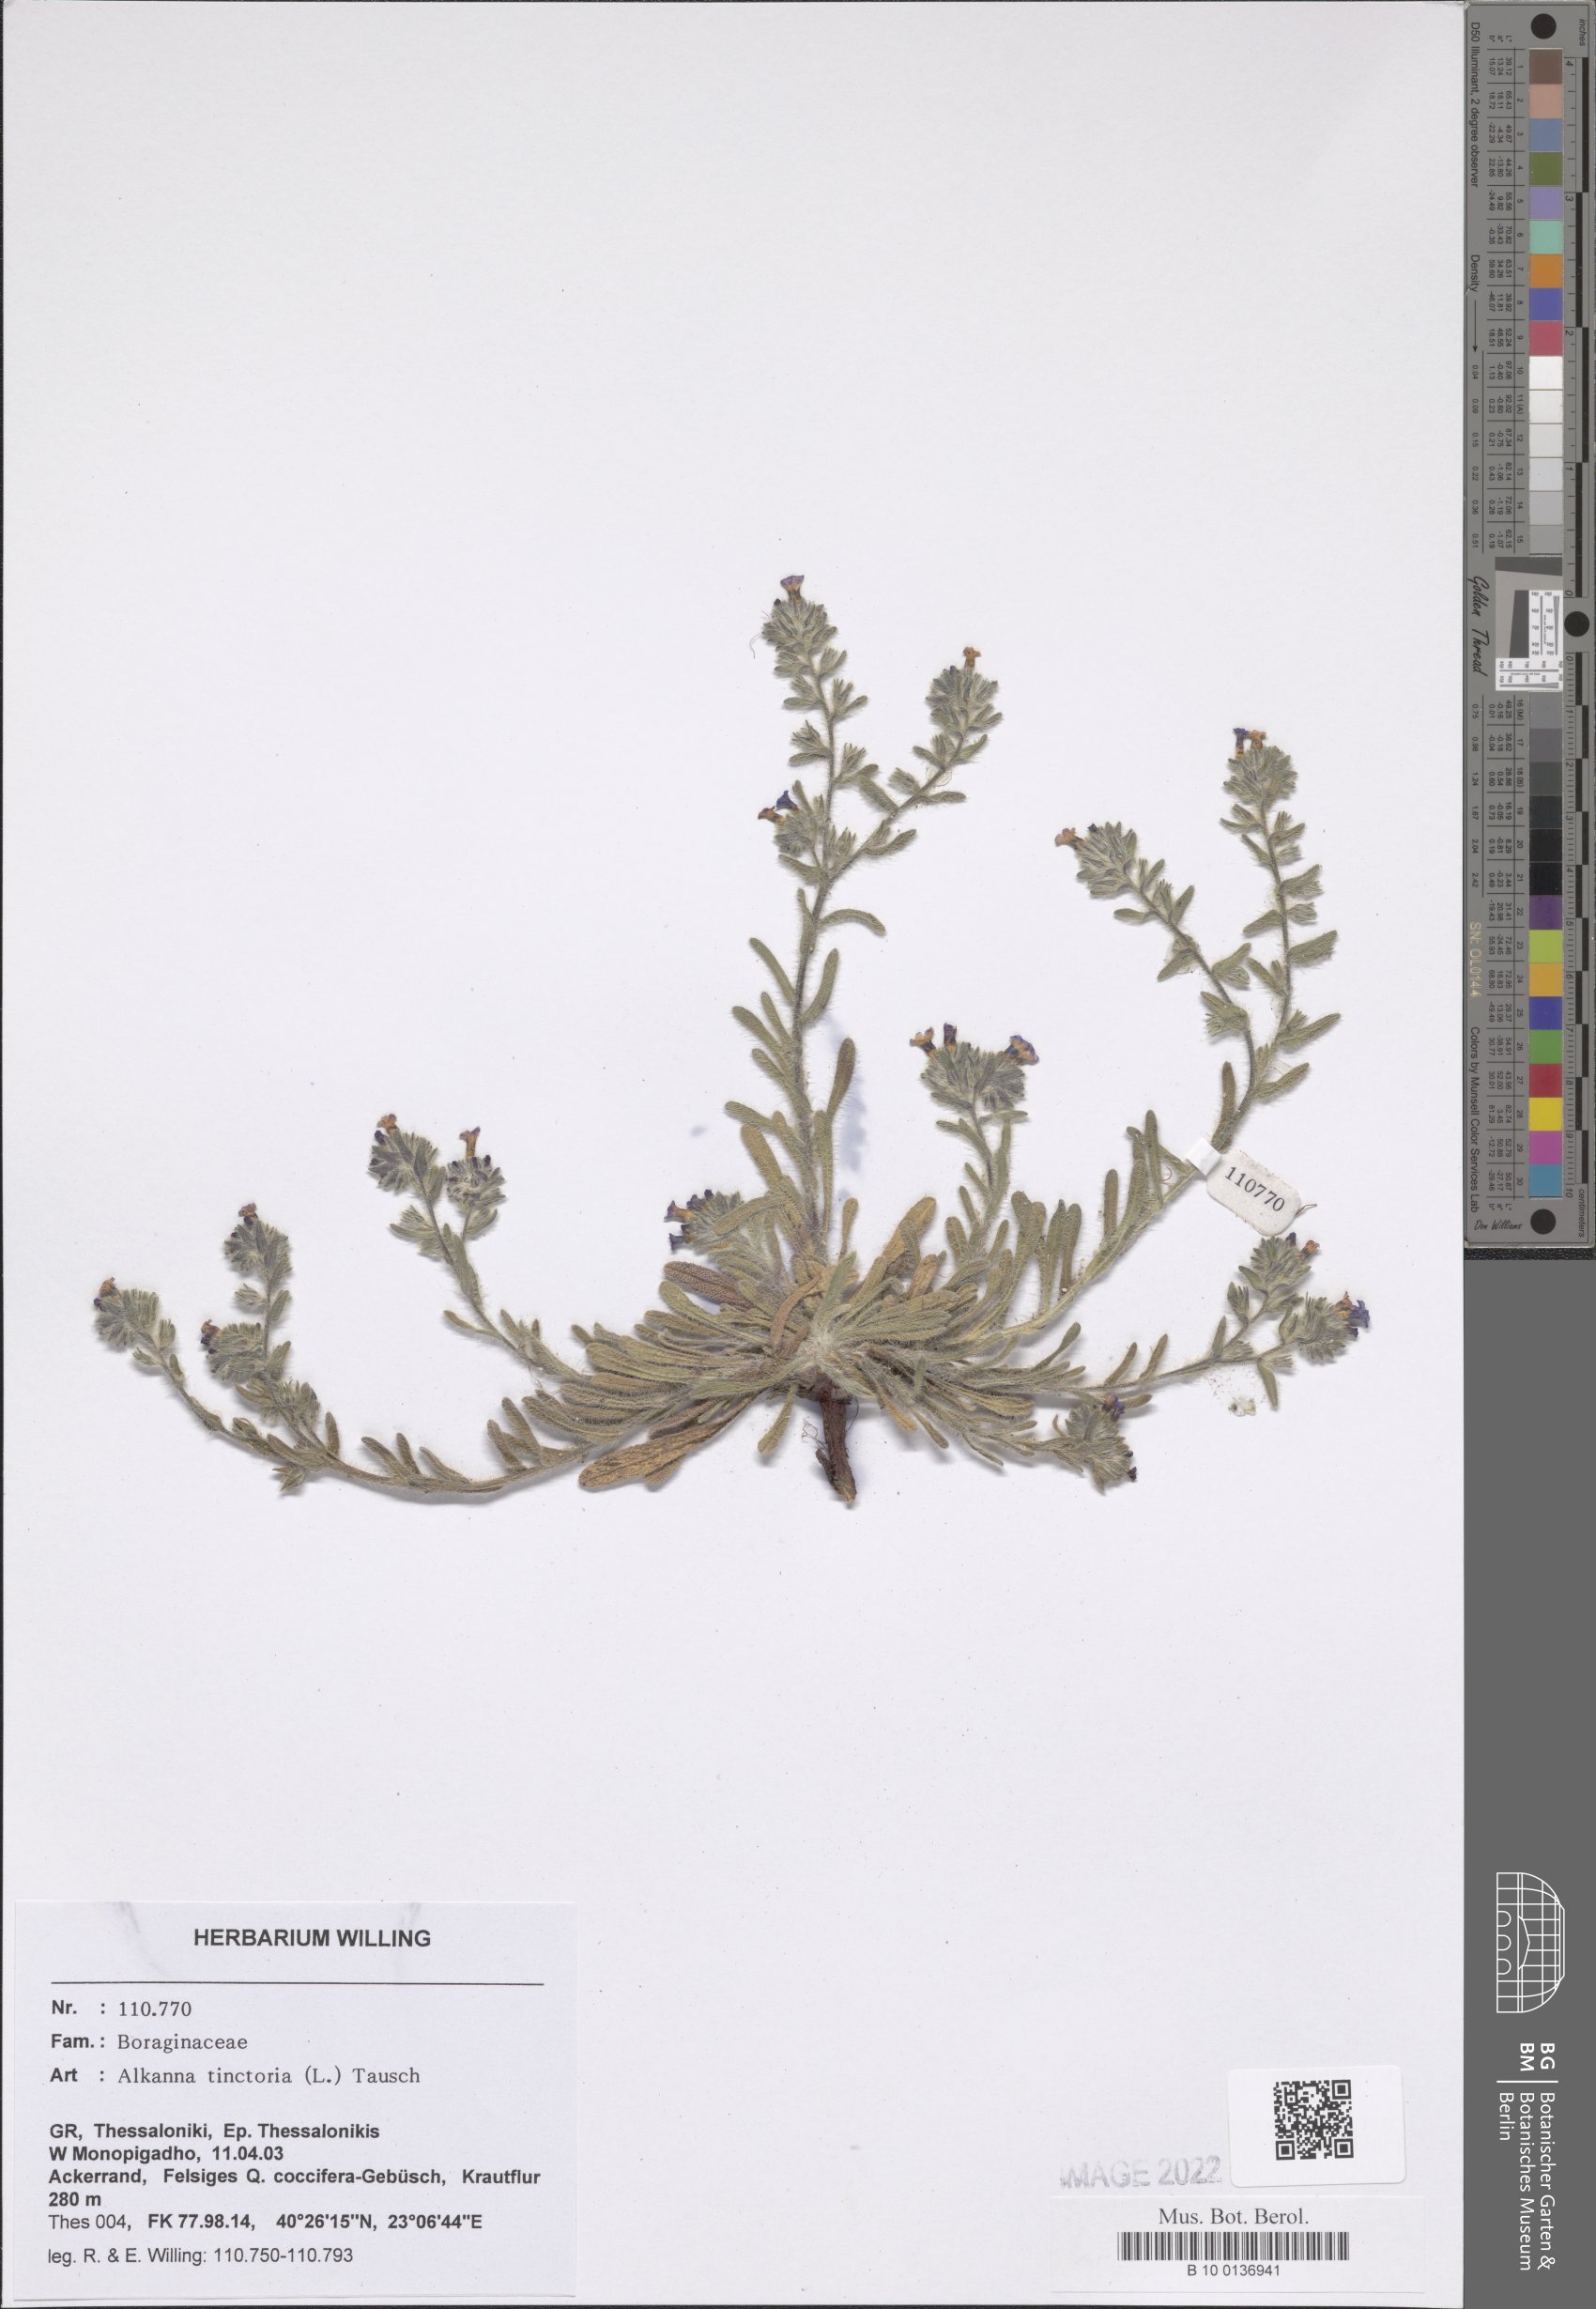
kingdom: Plantae
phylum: Tracheophyta
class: Magnoliopsida
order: Boraginales
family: Boraginaceae
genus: Alkanna
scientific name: Alkanna tinctoria
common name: Dyer's-alkanet
